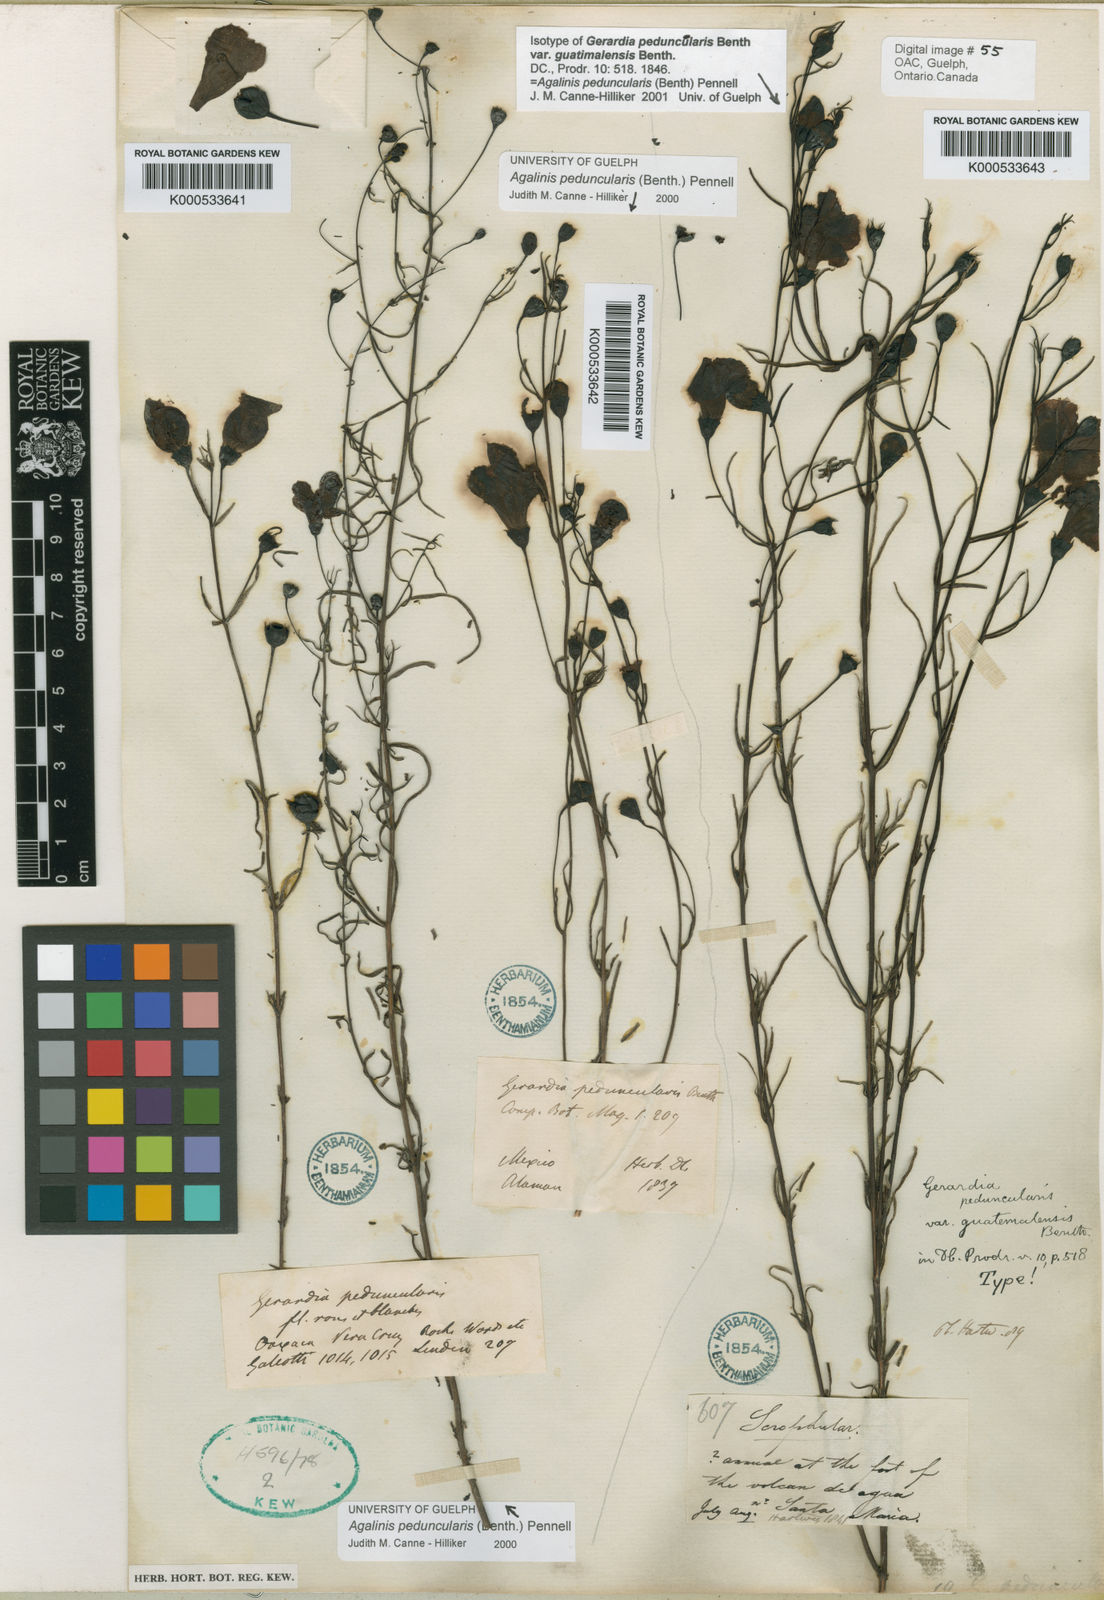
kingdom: Plantae
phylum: Tracheophyta
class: Magnoliopsida
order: Lamiales
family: Orobanchaceae
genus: Agalinis
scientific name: Agalinis peduncularis
